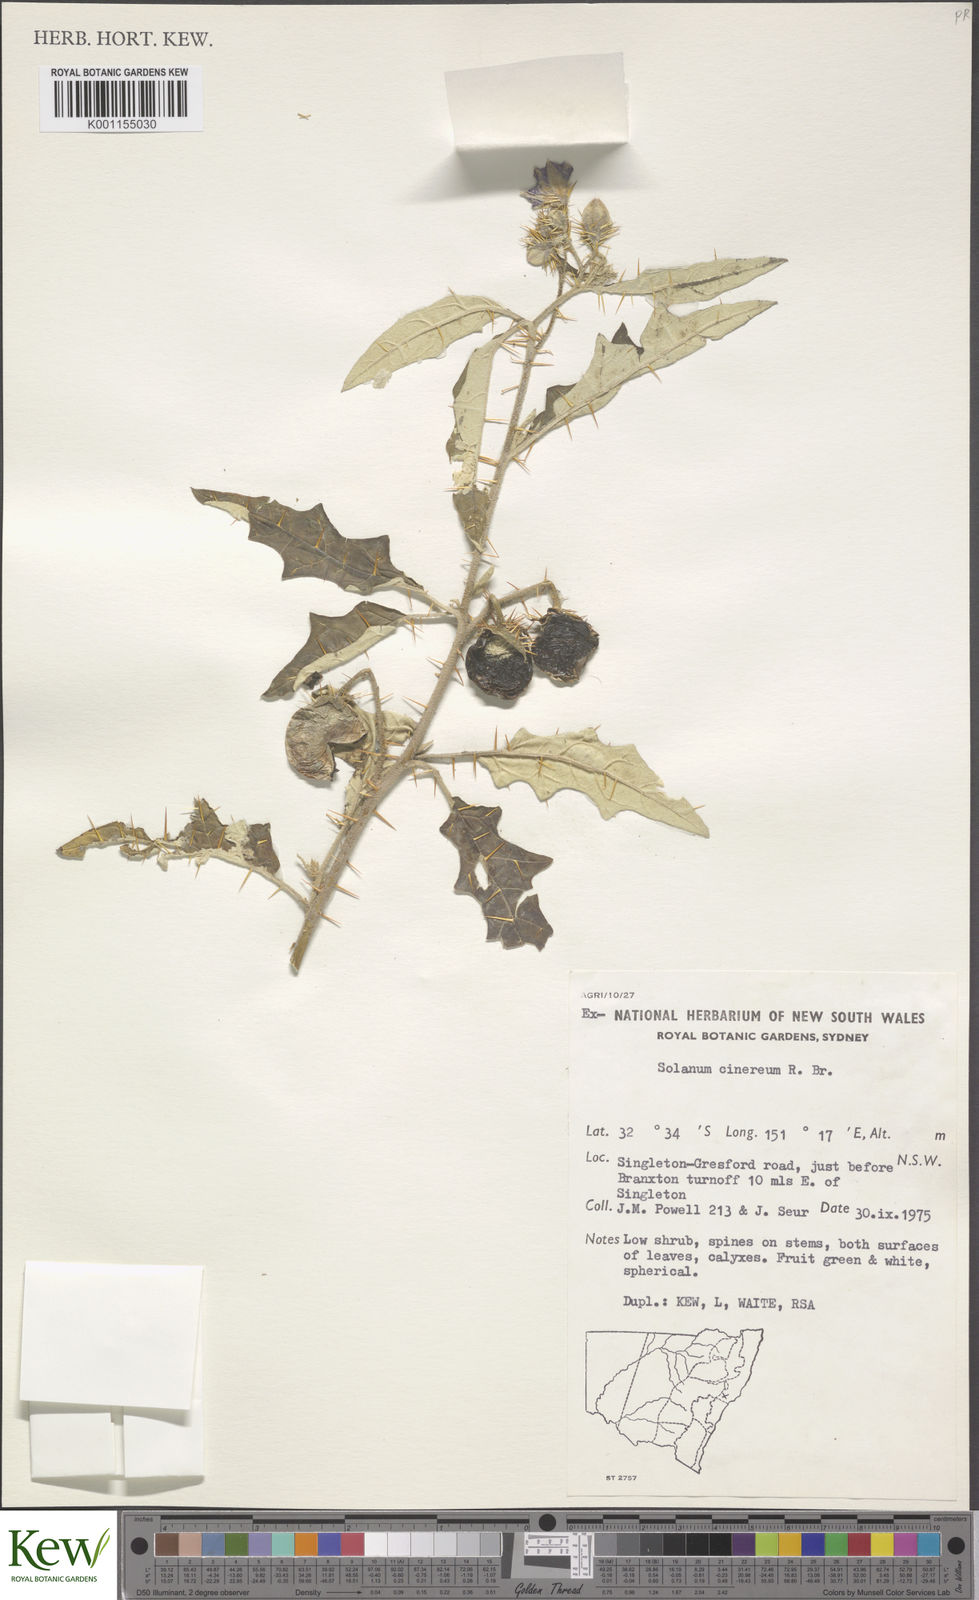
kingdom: Plantae
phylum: Tracheophyta
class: Magnoliopsida
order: Solanales
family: Solanaceae
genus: Solanum
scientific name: Solanum cinereum
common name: Narrawa-bur
